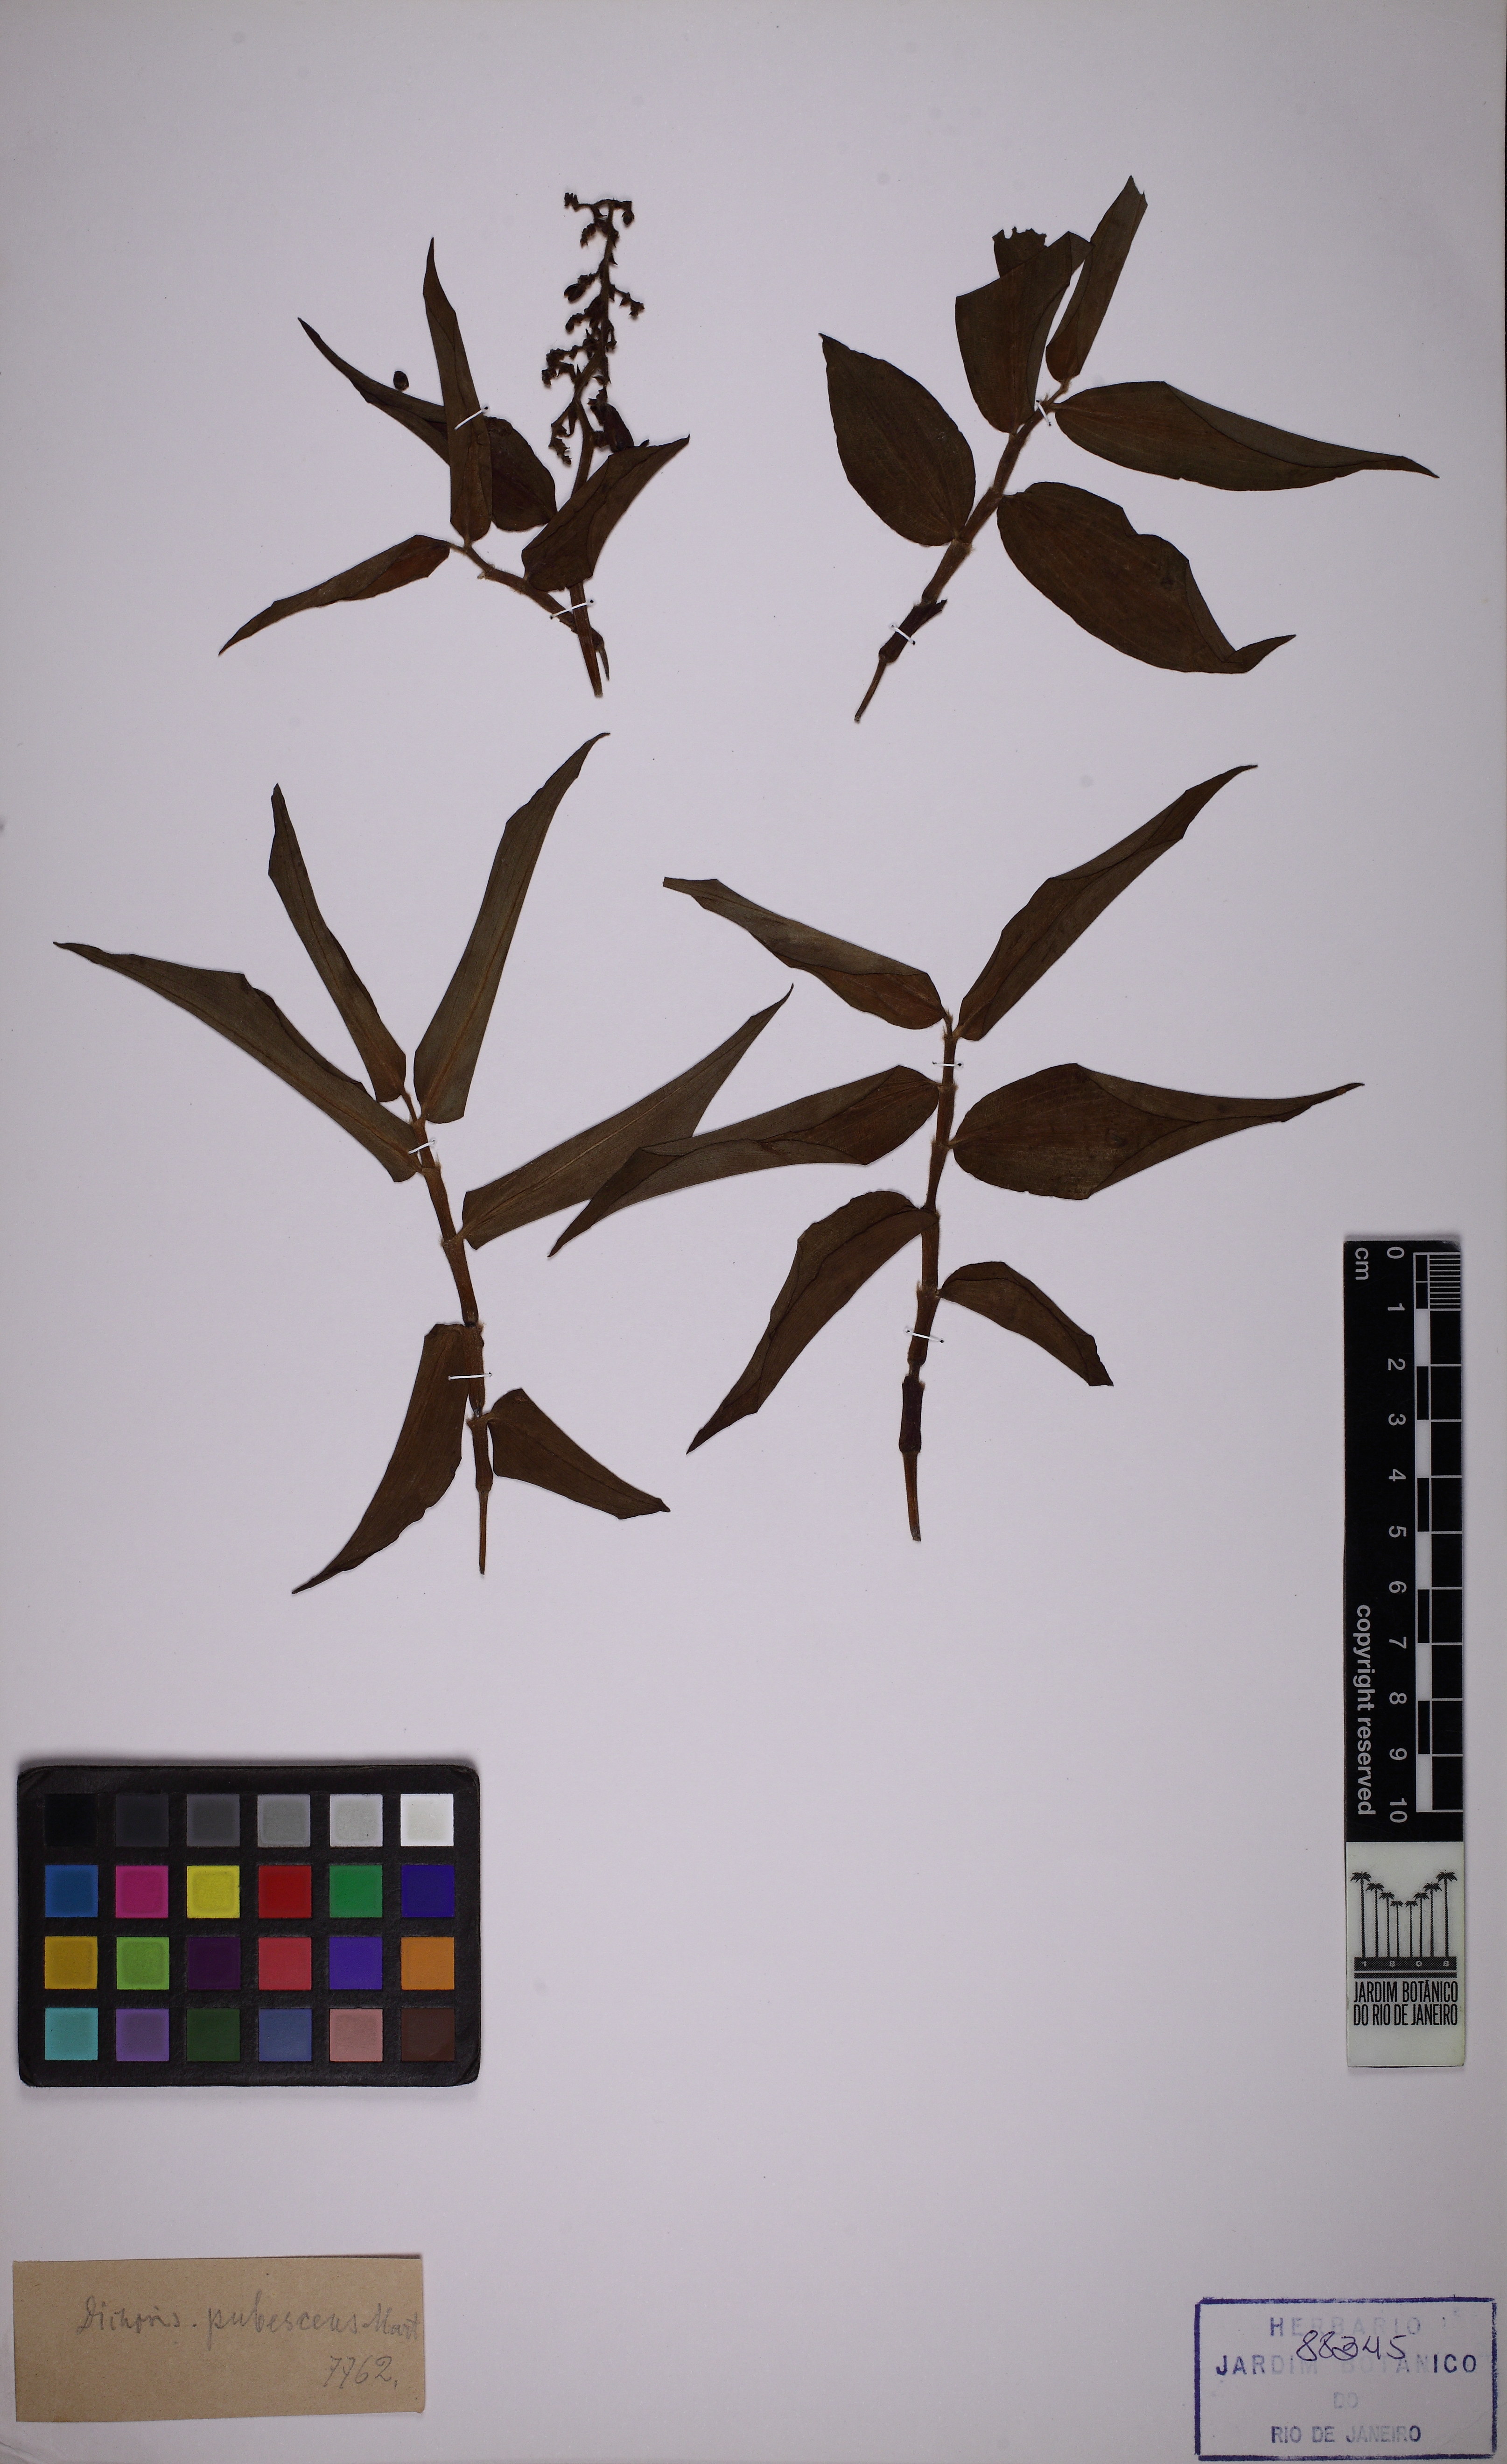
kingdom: Plantae
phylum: Tracheophyta
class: Liliopsida
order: Commelinales
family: Commelinaceae
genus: Dichorisandra
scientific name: Dichorisandra hexandra
